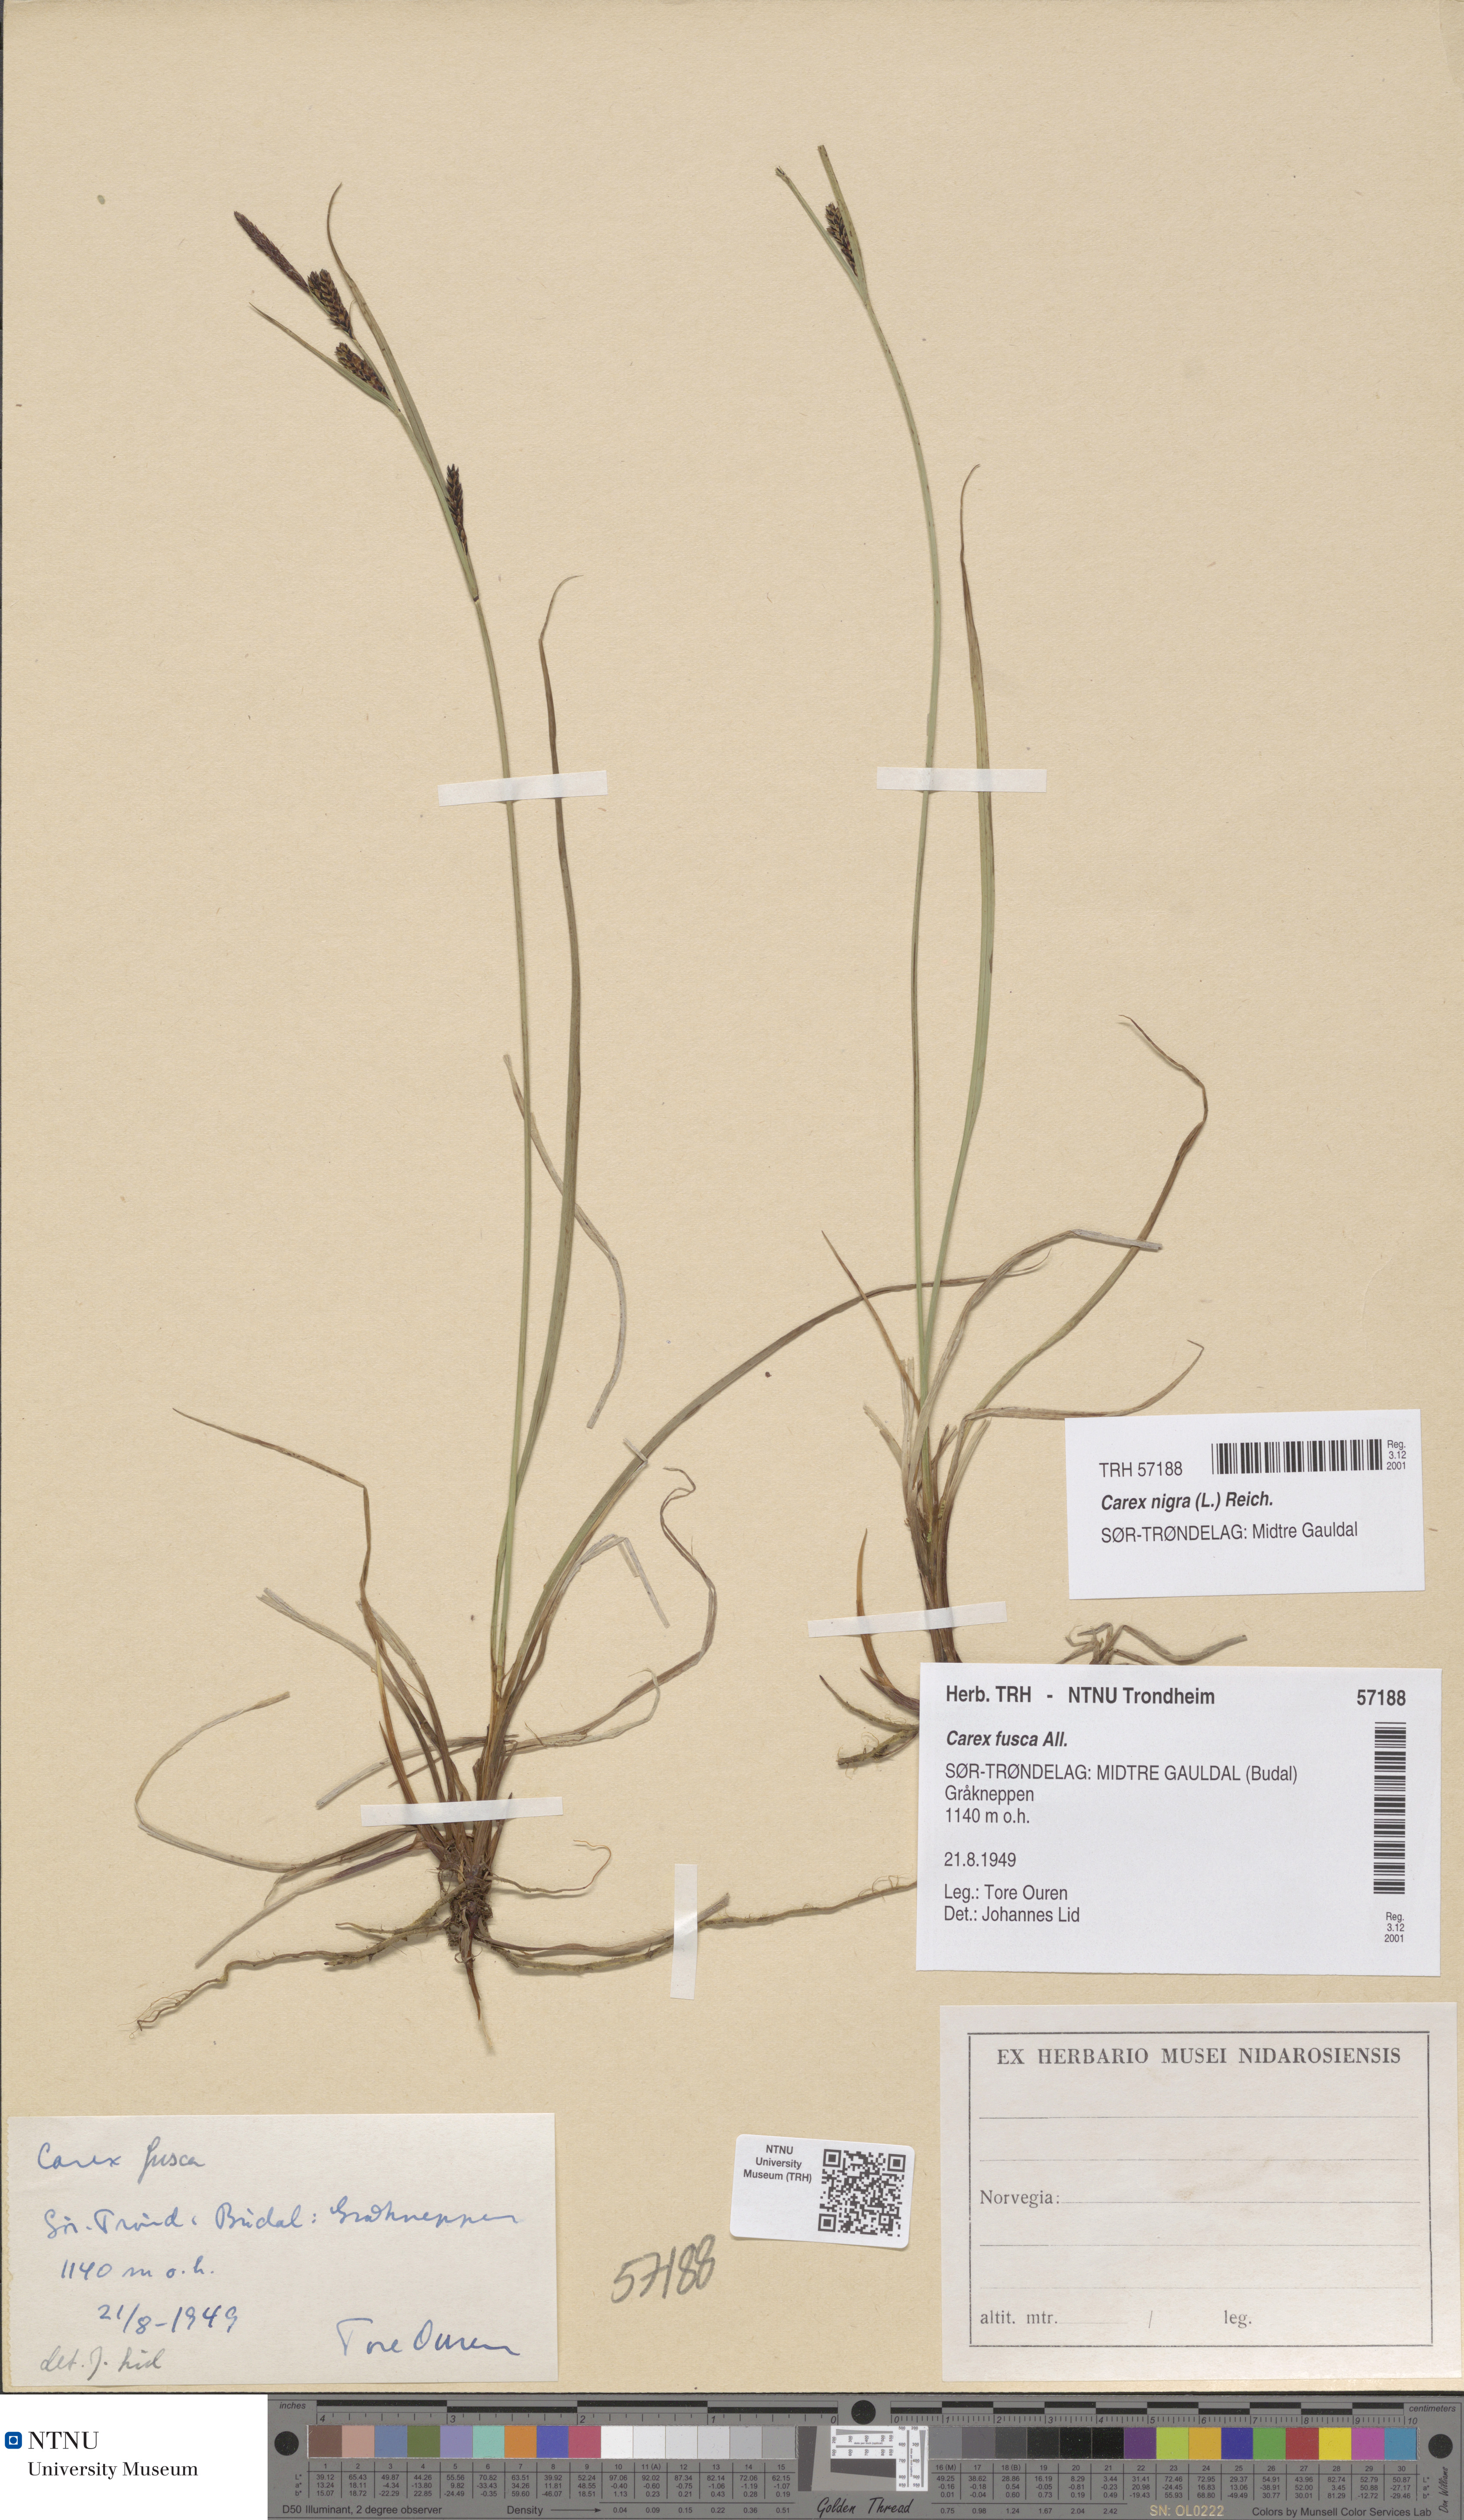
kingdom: Plantae
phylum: Tracheophyta
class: Liliopsida
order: Poales
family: Cyperaceae
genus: Carex
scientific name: Carex nigra
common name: Common sedge
